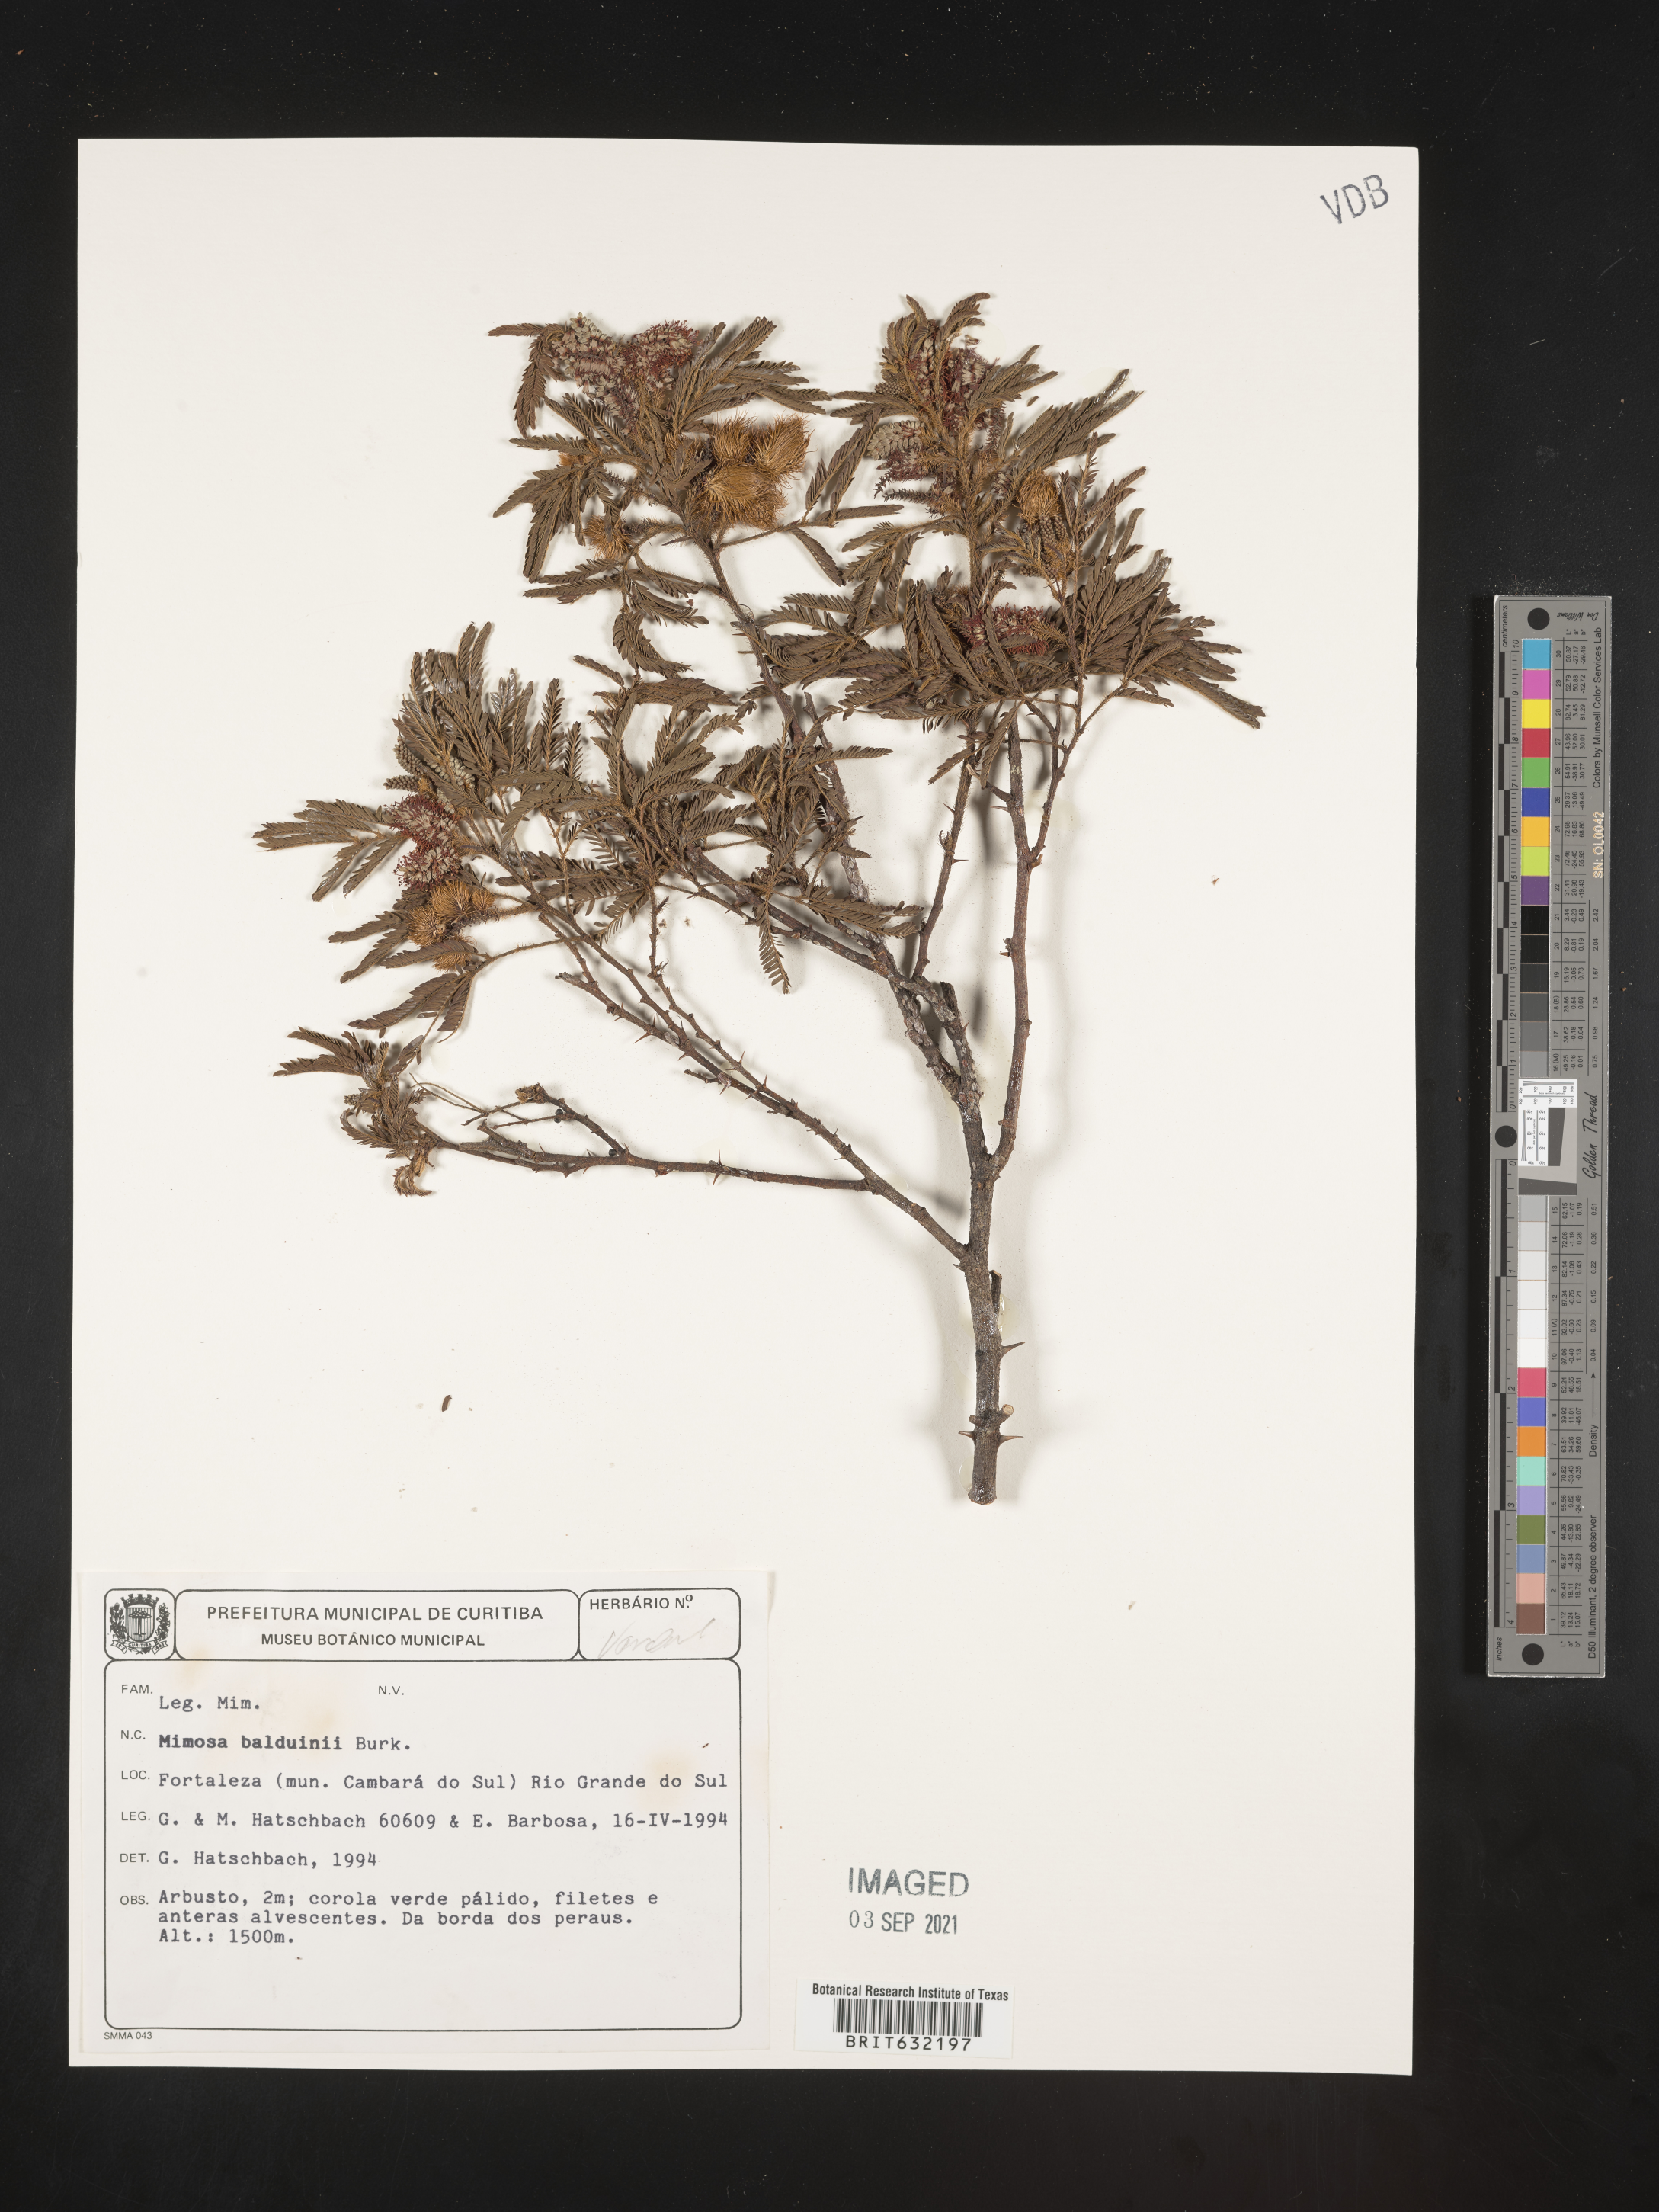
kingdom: Plantae
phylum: Tracheophyta
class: Magnoliopsida
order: Fabales
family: Fabaceae
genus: Mimosa
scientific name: Mimosa
